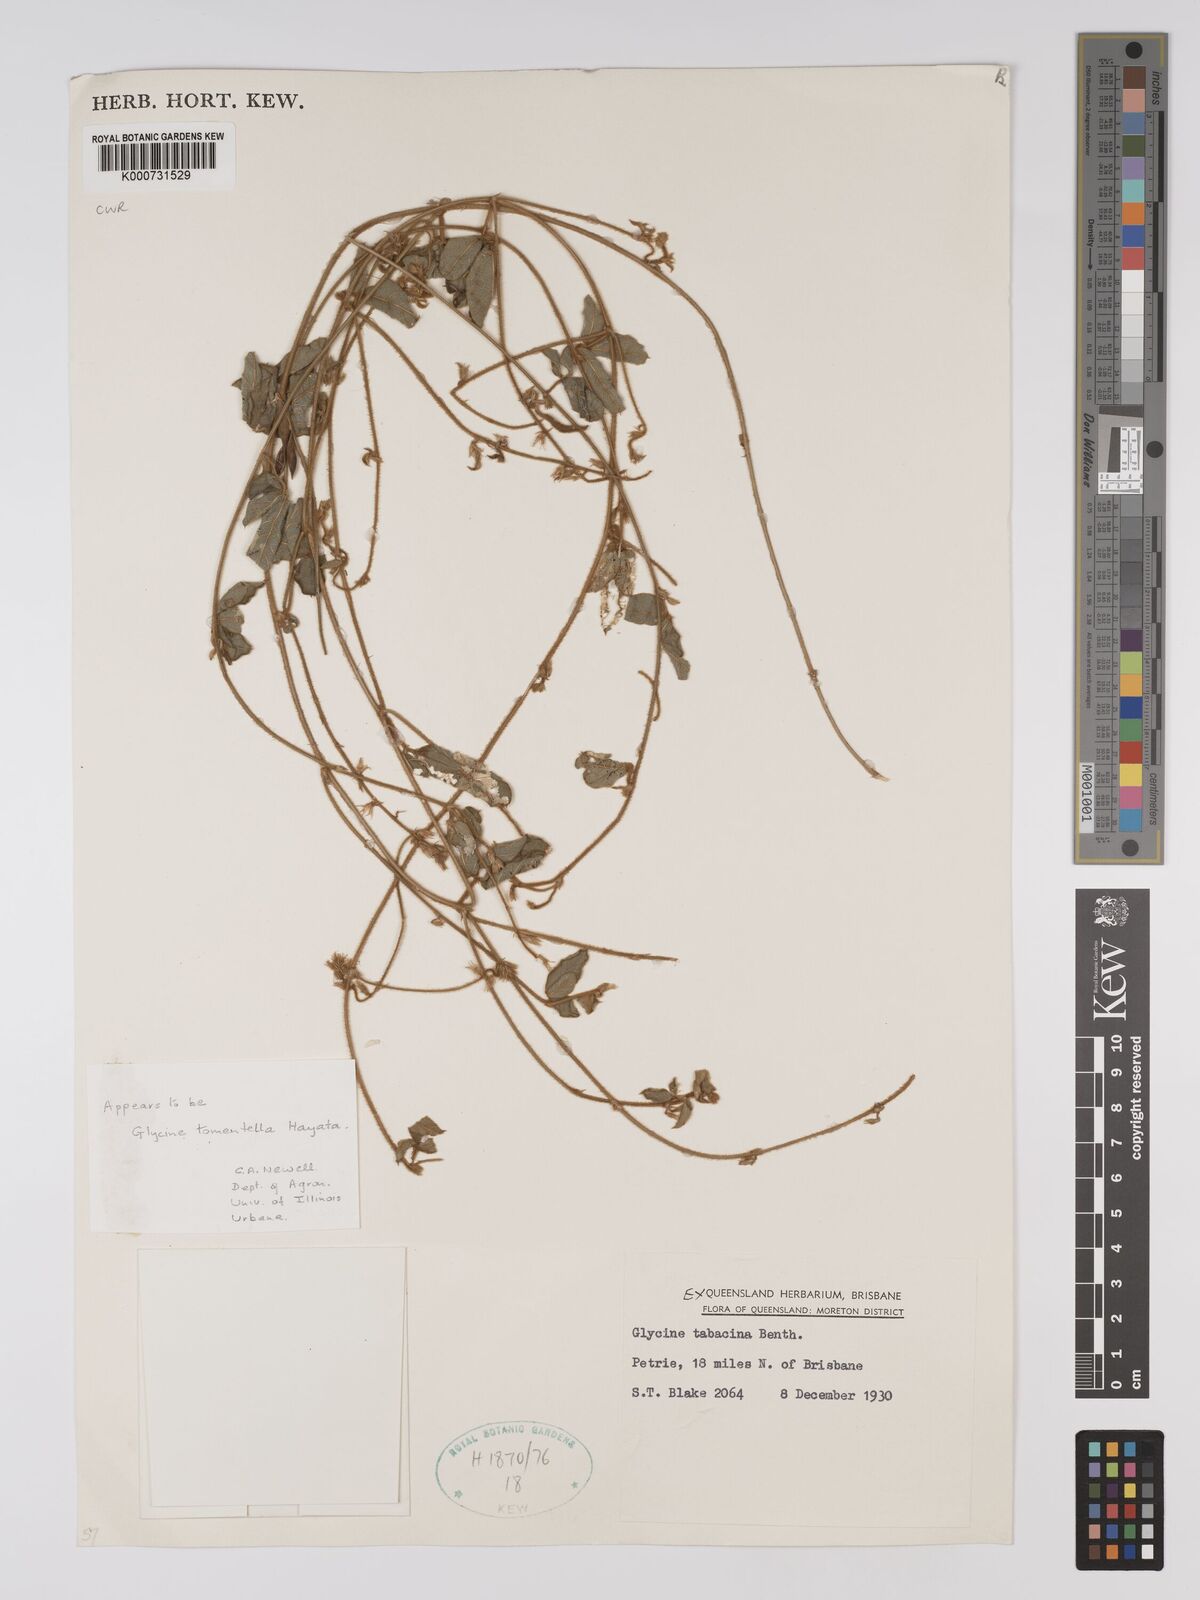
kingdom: Plantae
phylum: Tracheophyta
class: Magnoliopsida
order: Fabales
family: Fabaceae
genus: Glycine
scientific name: Glycine tabacina
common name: Pea glycine
